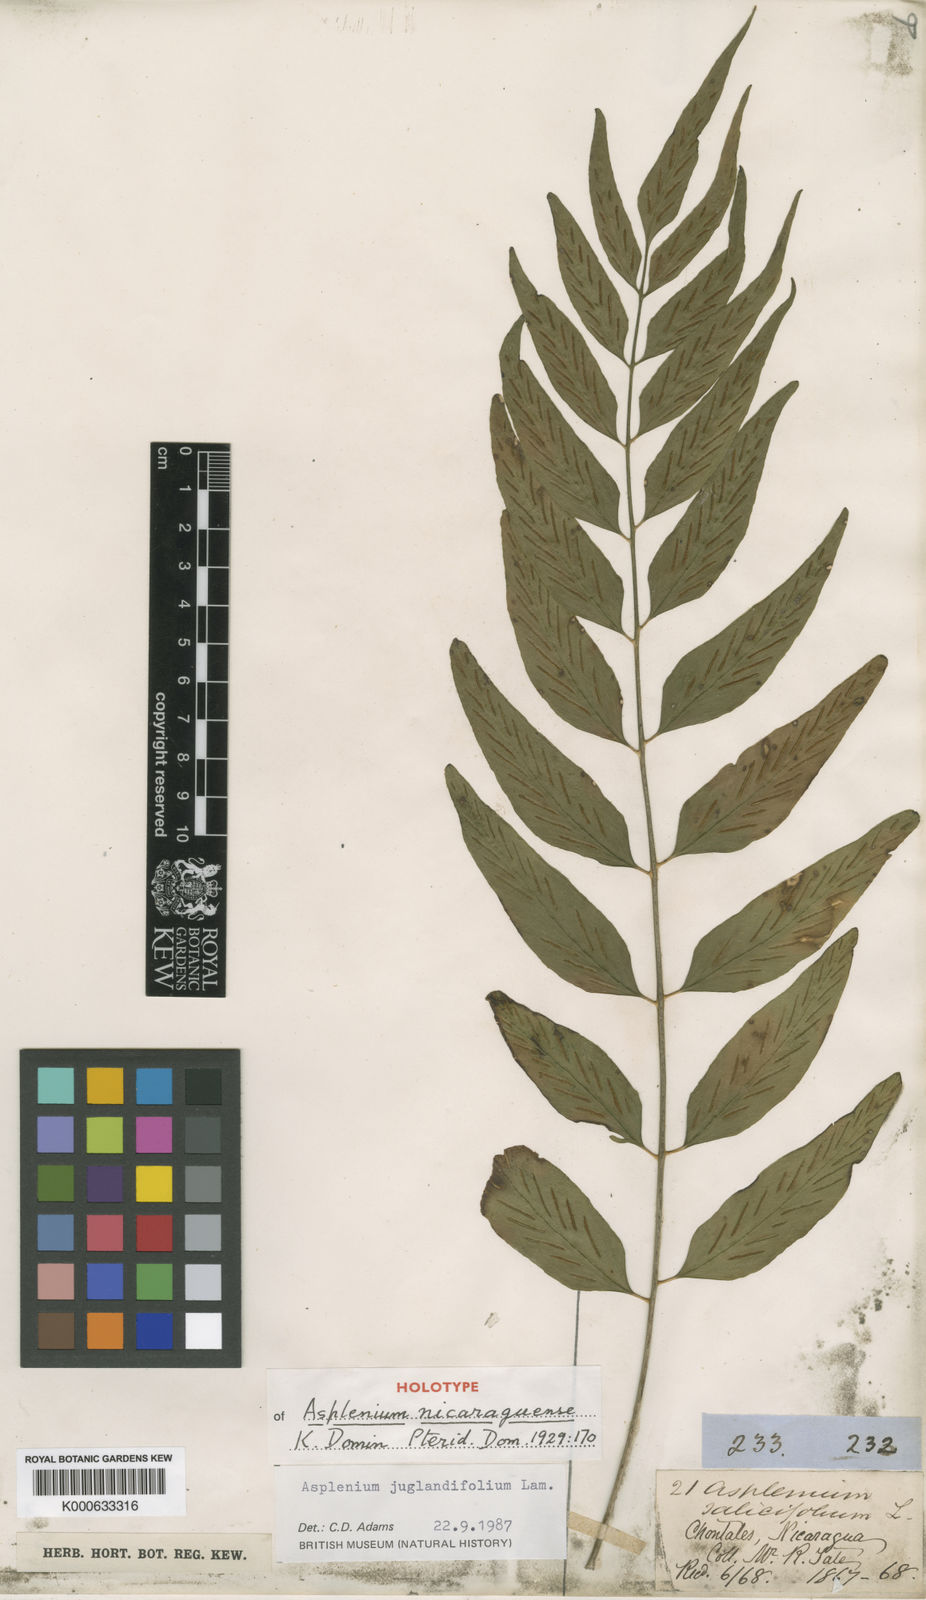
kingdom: Plantae
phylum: Tracheophyta
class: Polypodiopsida
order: Polypodiales
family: Aspleniaceae
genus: Asplenium
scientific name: Asplenium juglandifolium
